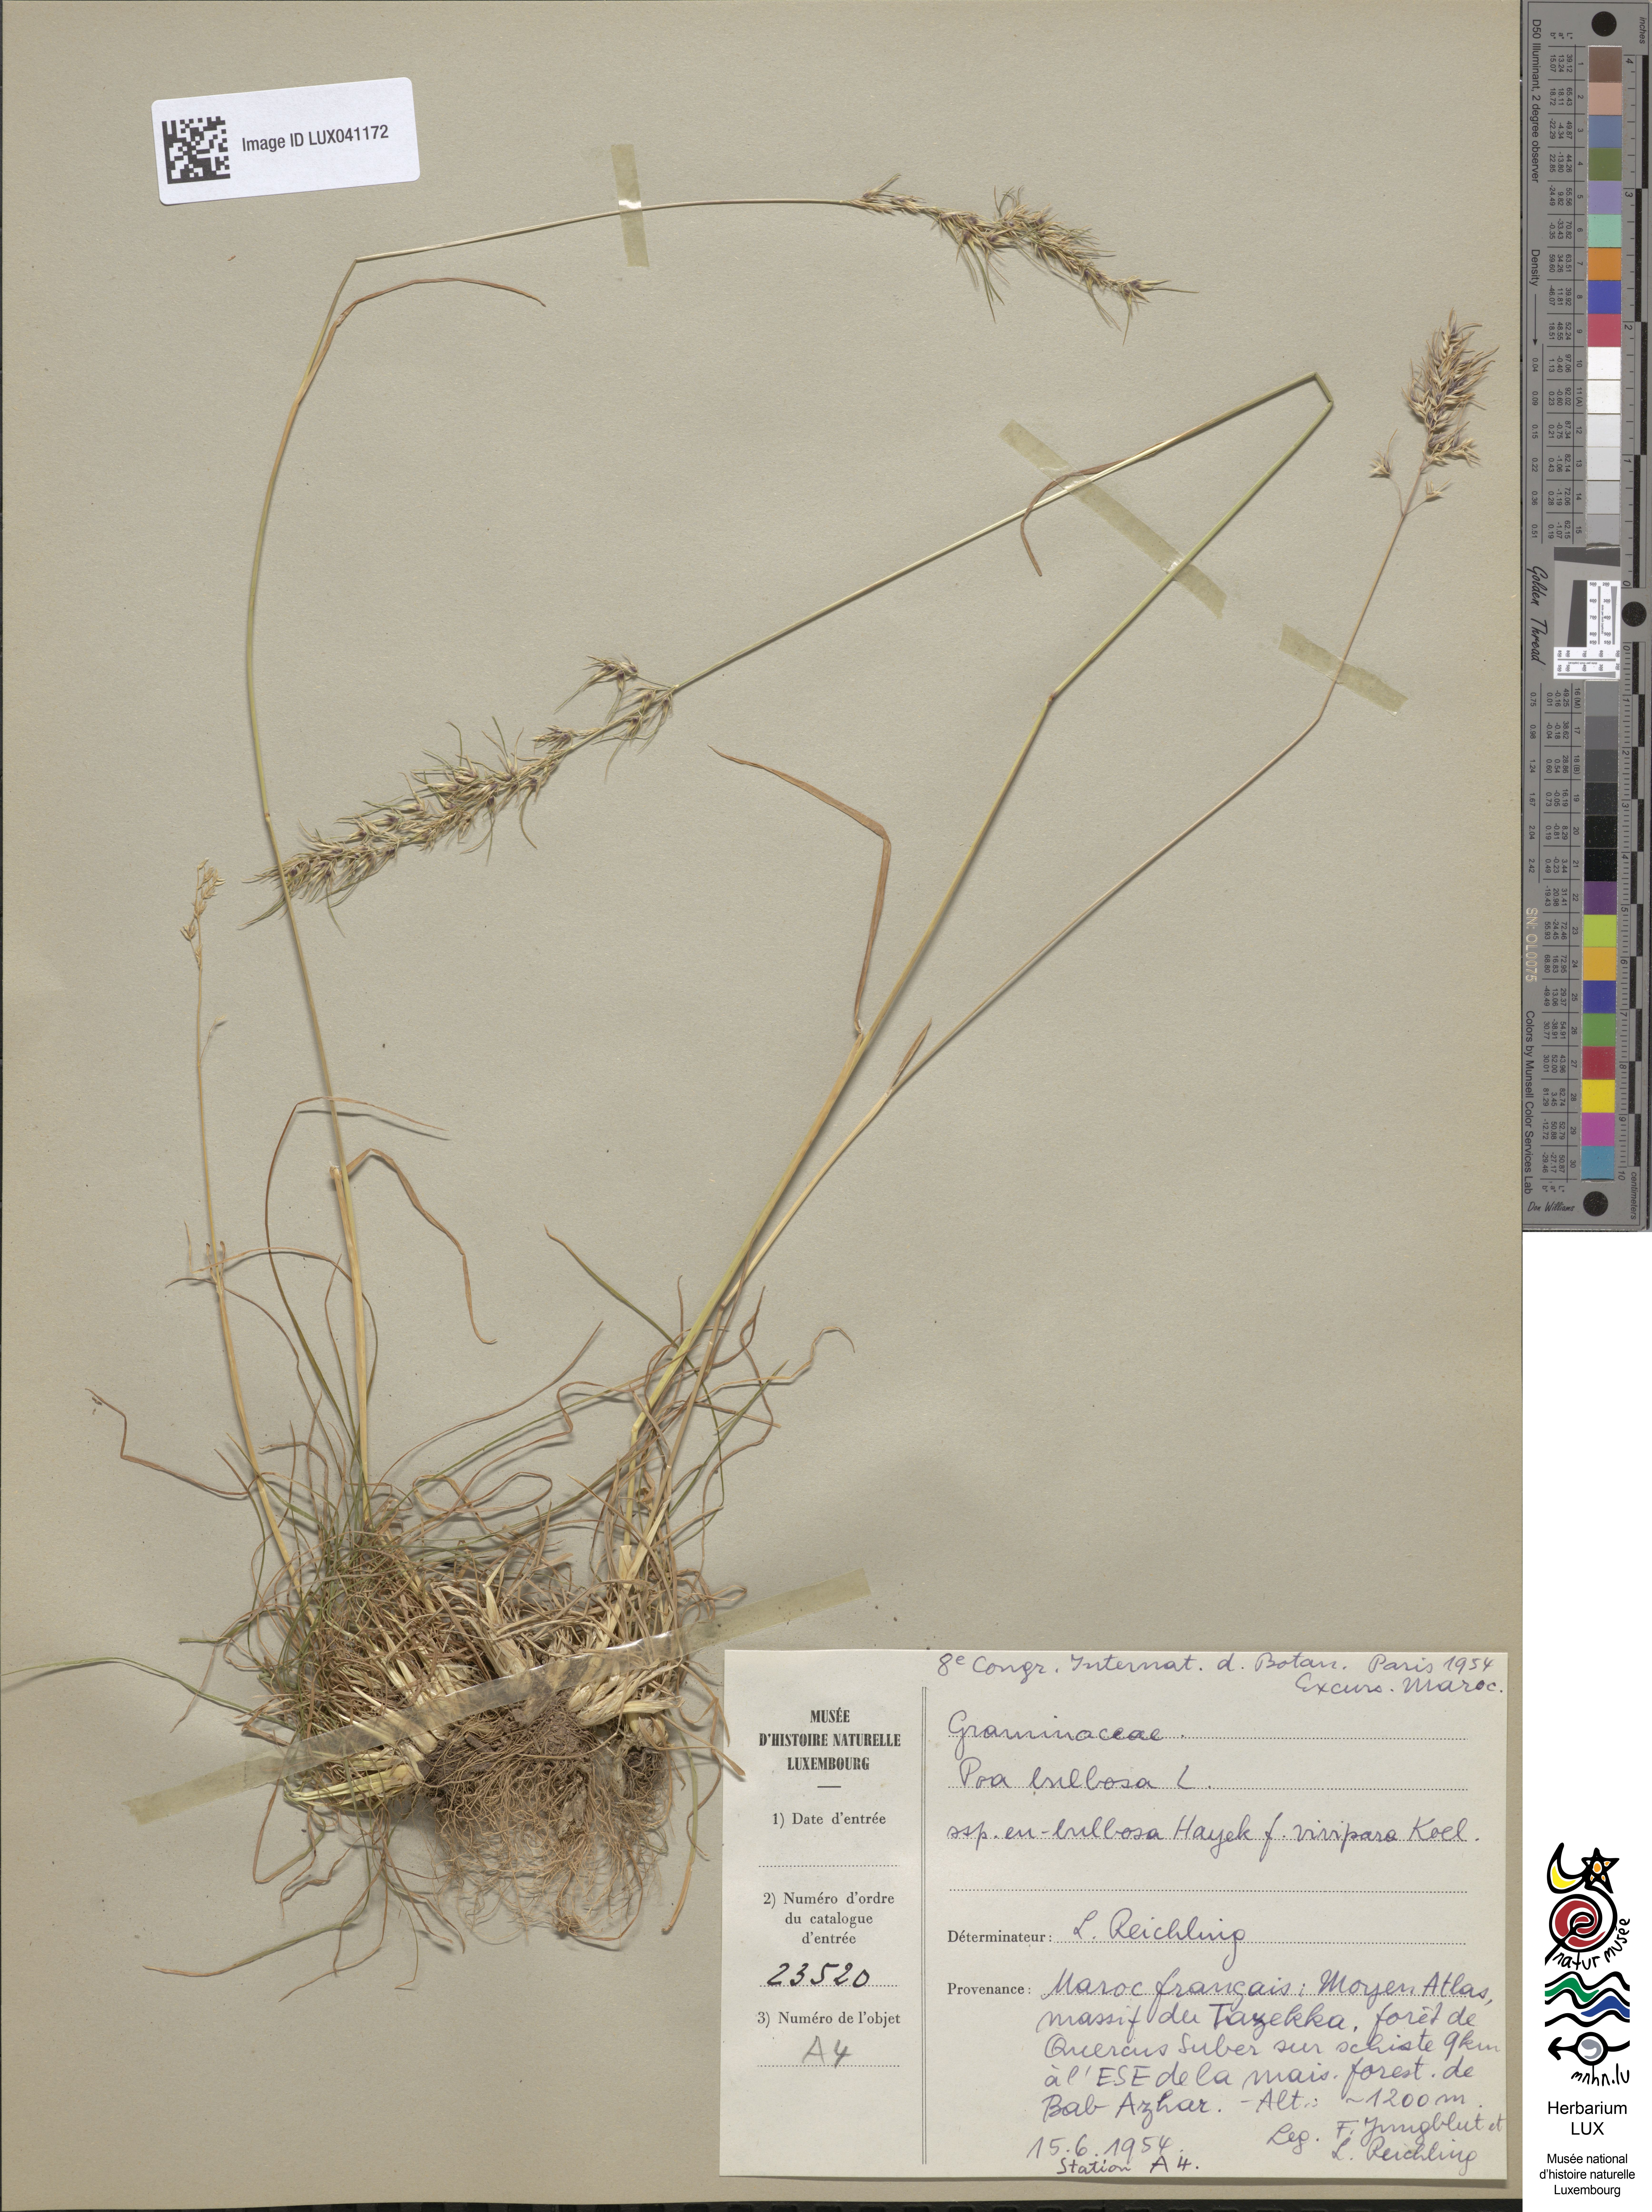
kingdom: Plantae
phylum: Tracheophyta
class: Liliopsida
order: Poales
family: Poaceae
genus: Poa
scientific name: Poa bulbosa
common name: Bulbous bluegrass
